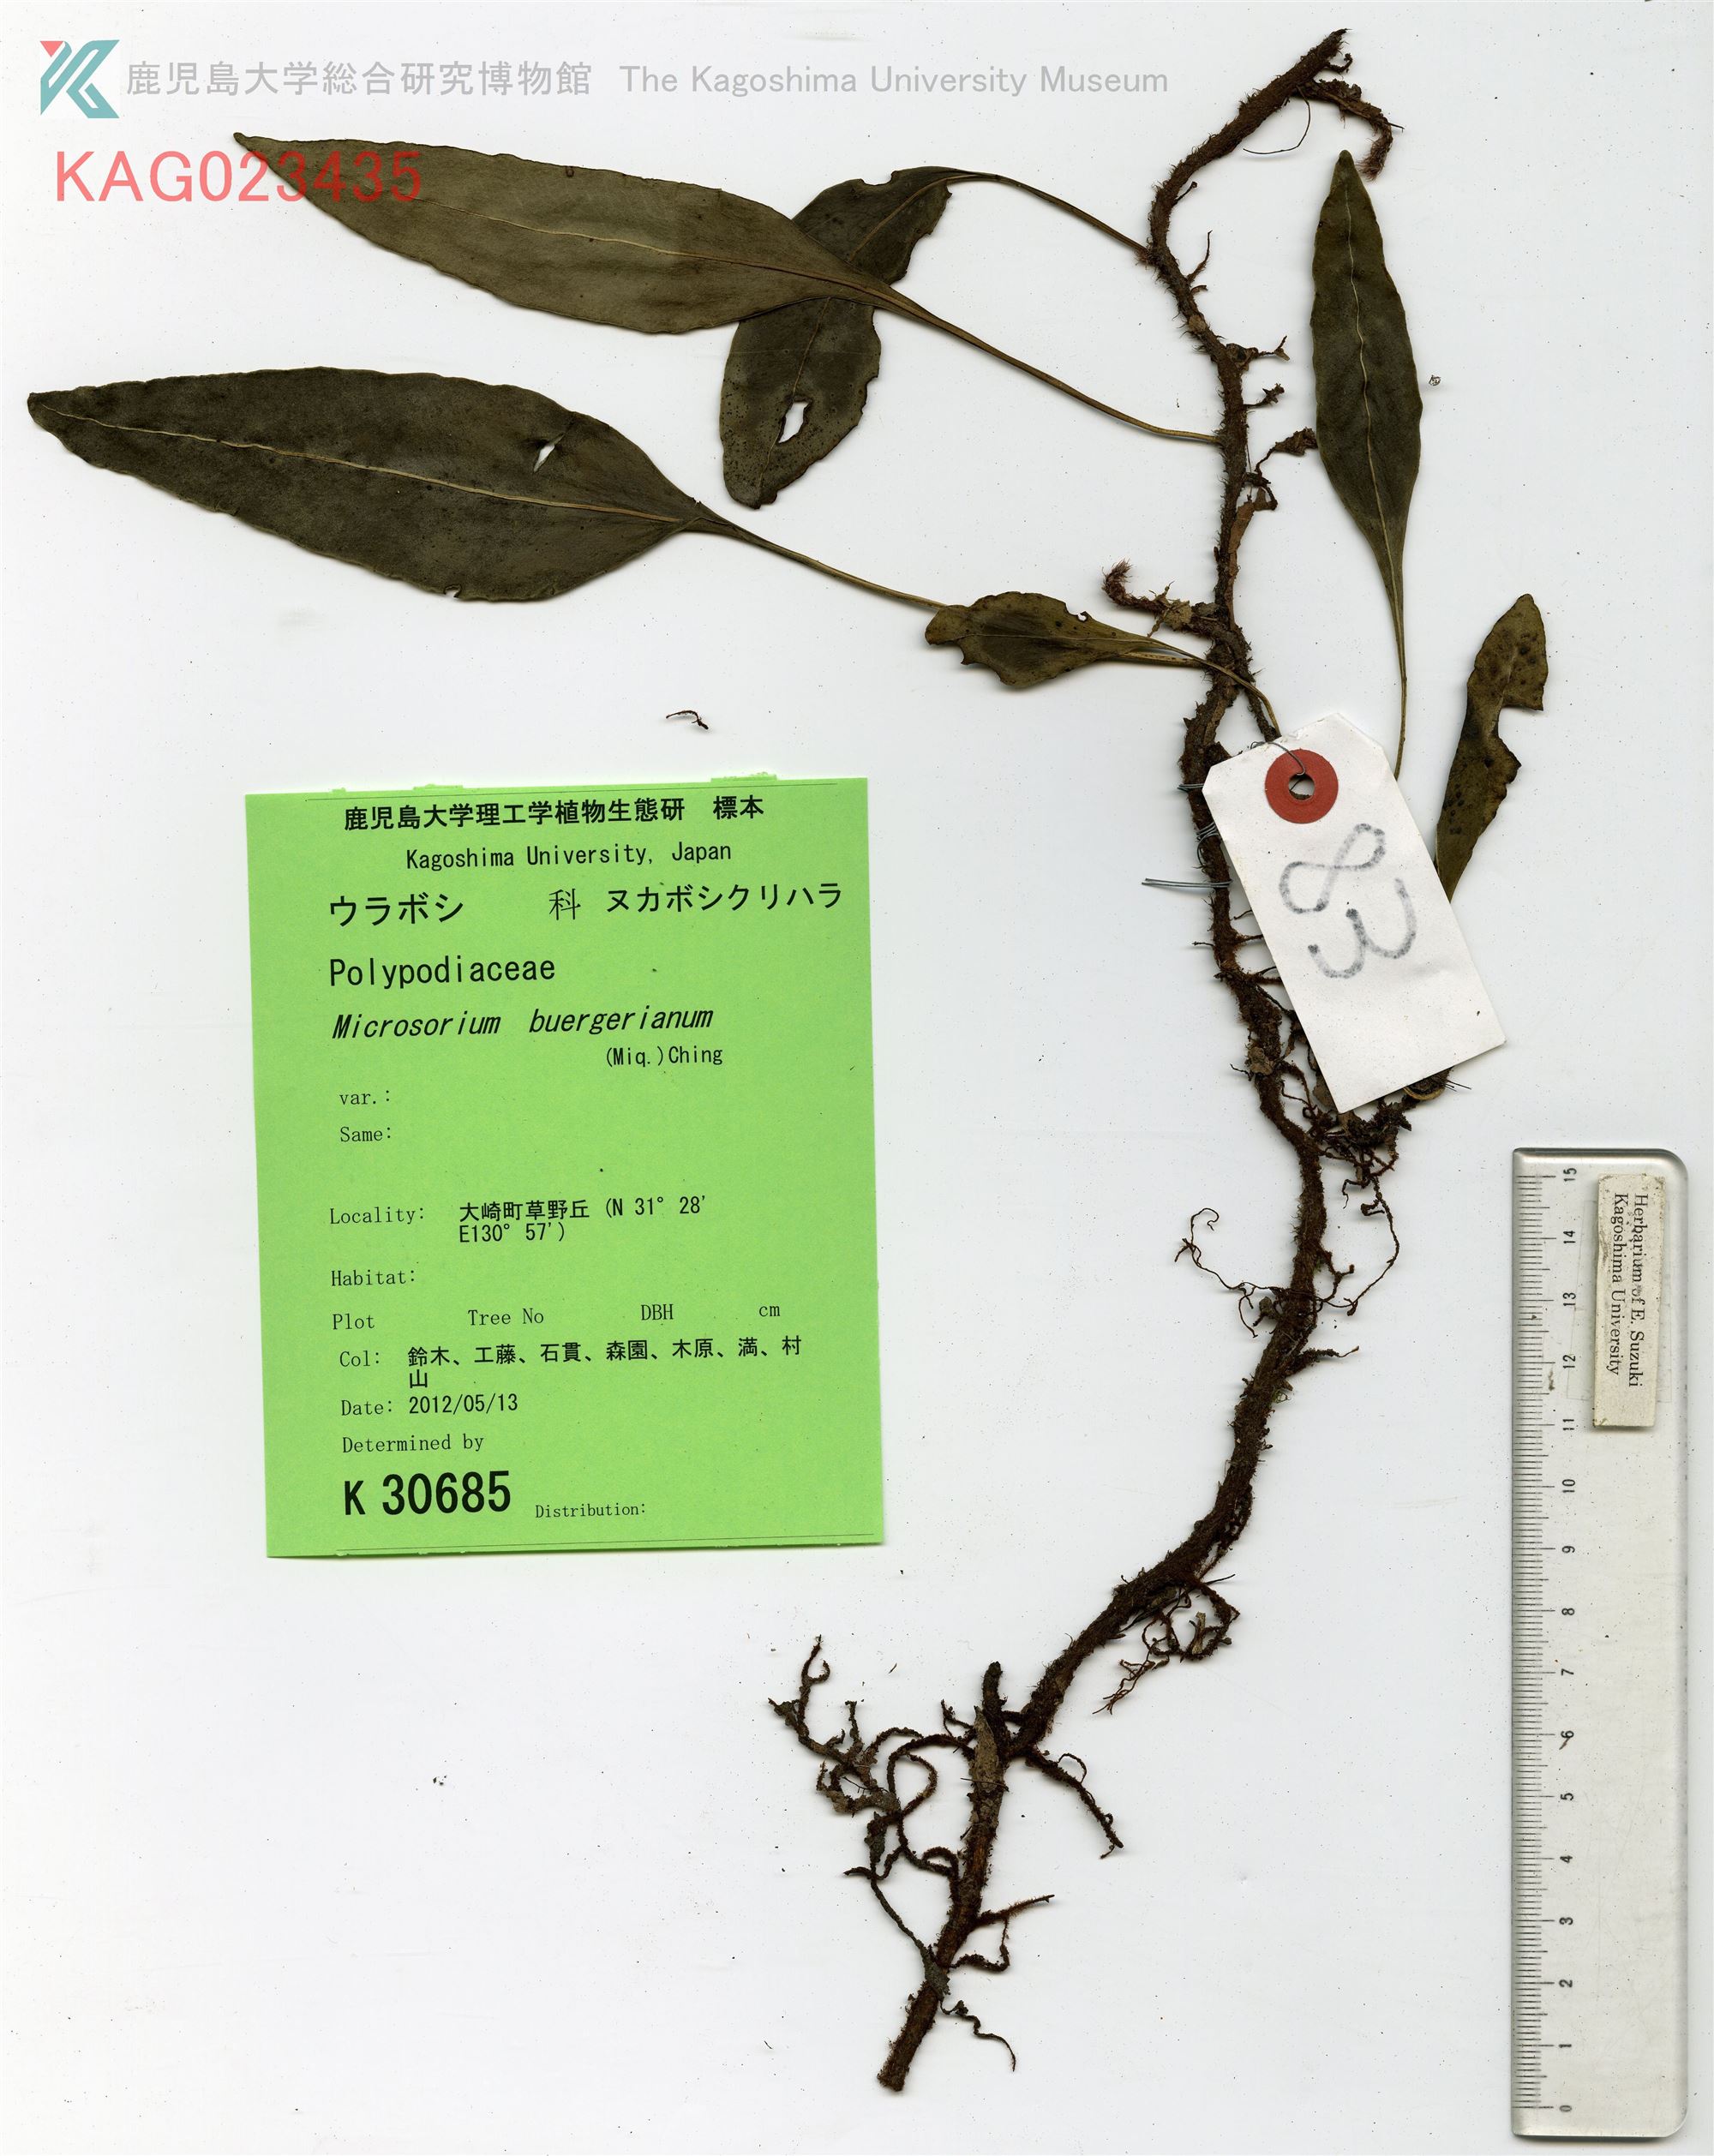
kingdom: Plantae
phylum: Tracheophyta
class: Polypodiopsida
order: Polypodiales
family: Polypodiaceae
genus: Lepisorus
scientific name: Lepisorus superficialis
